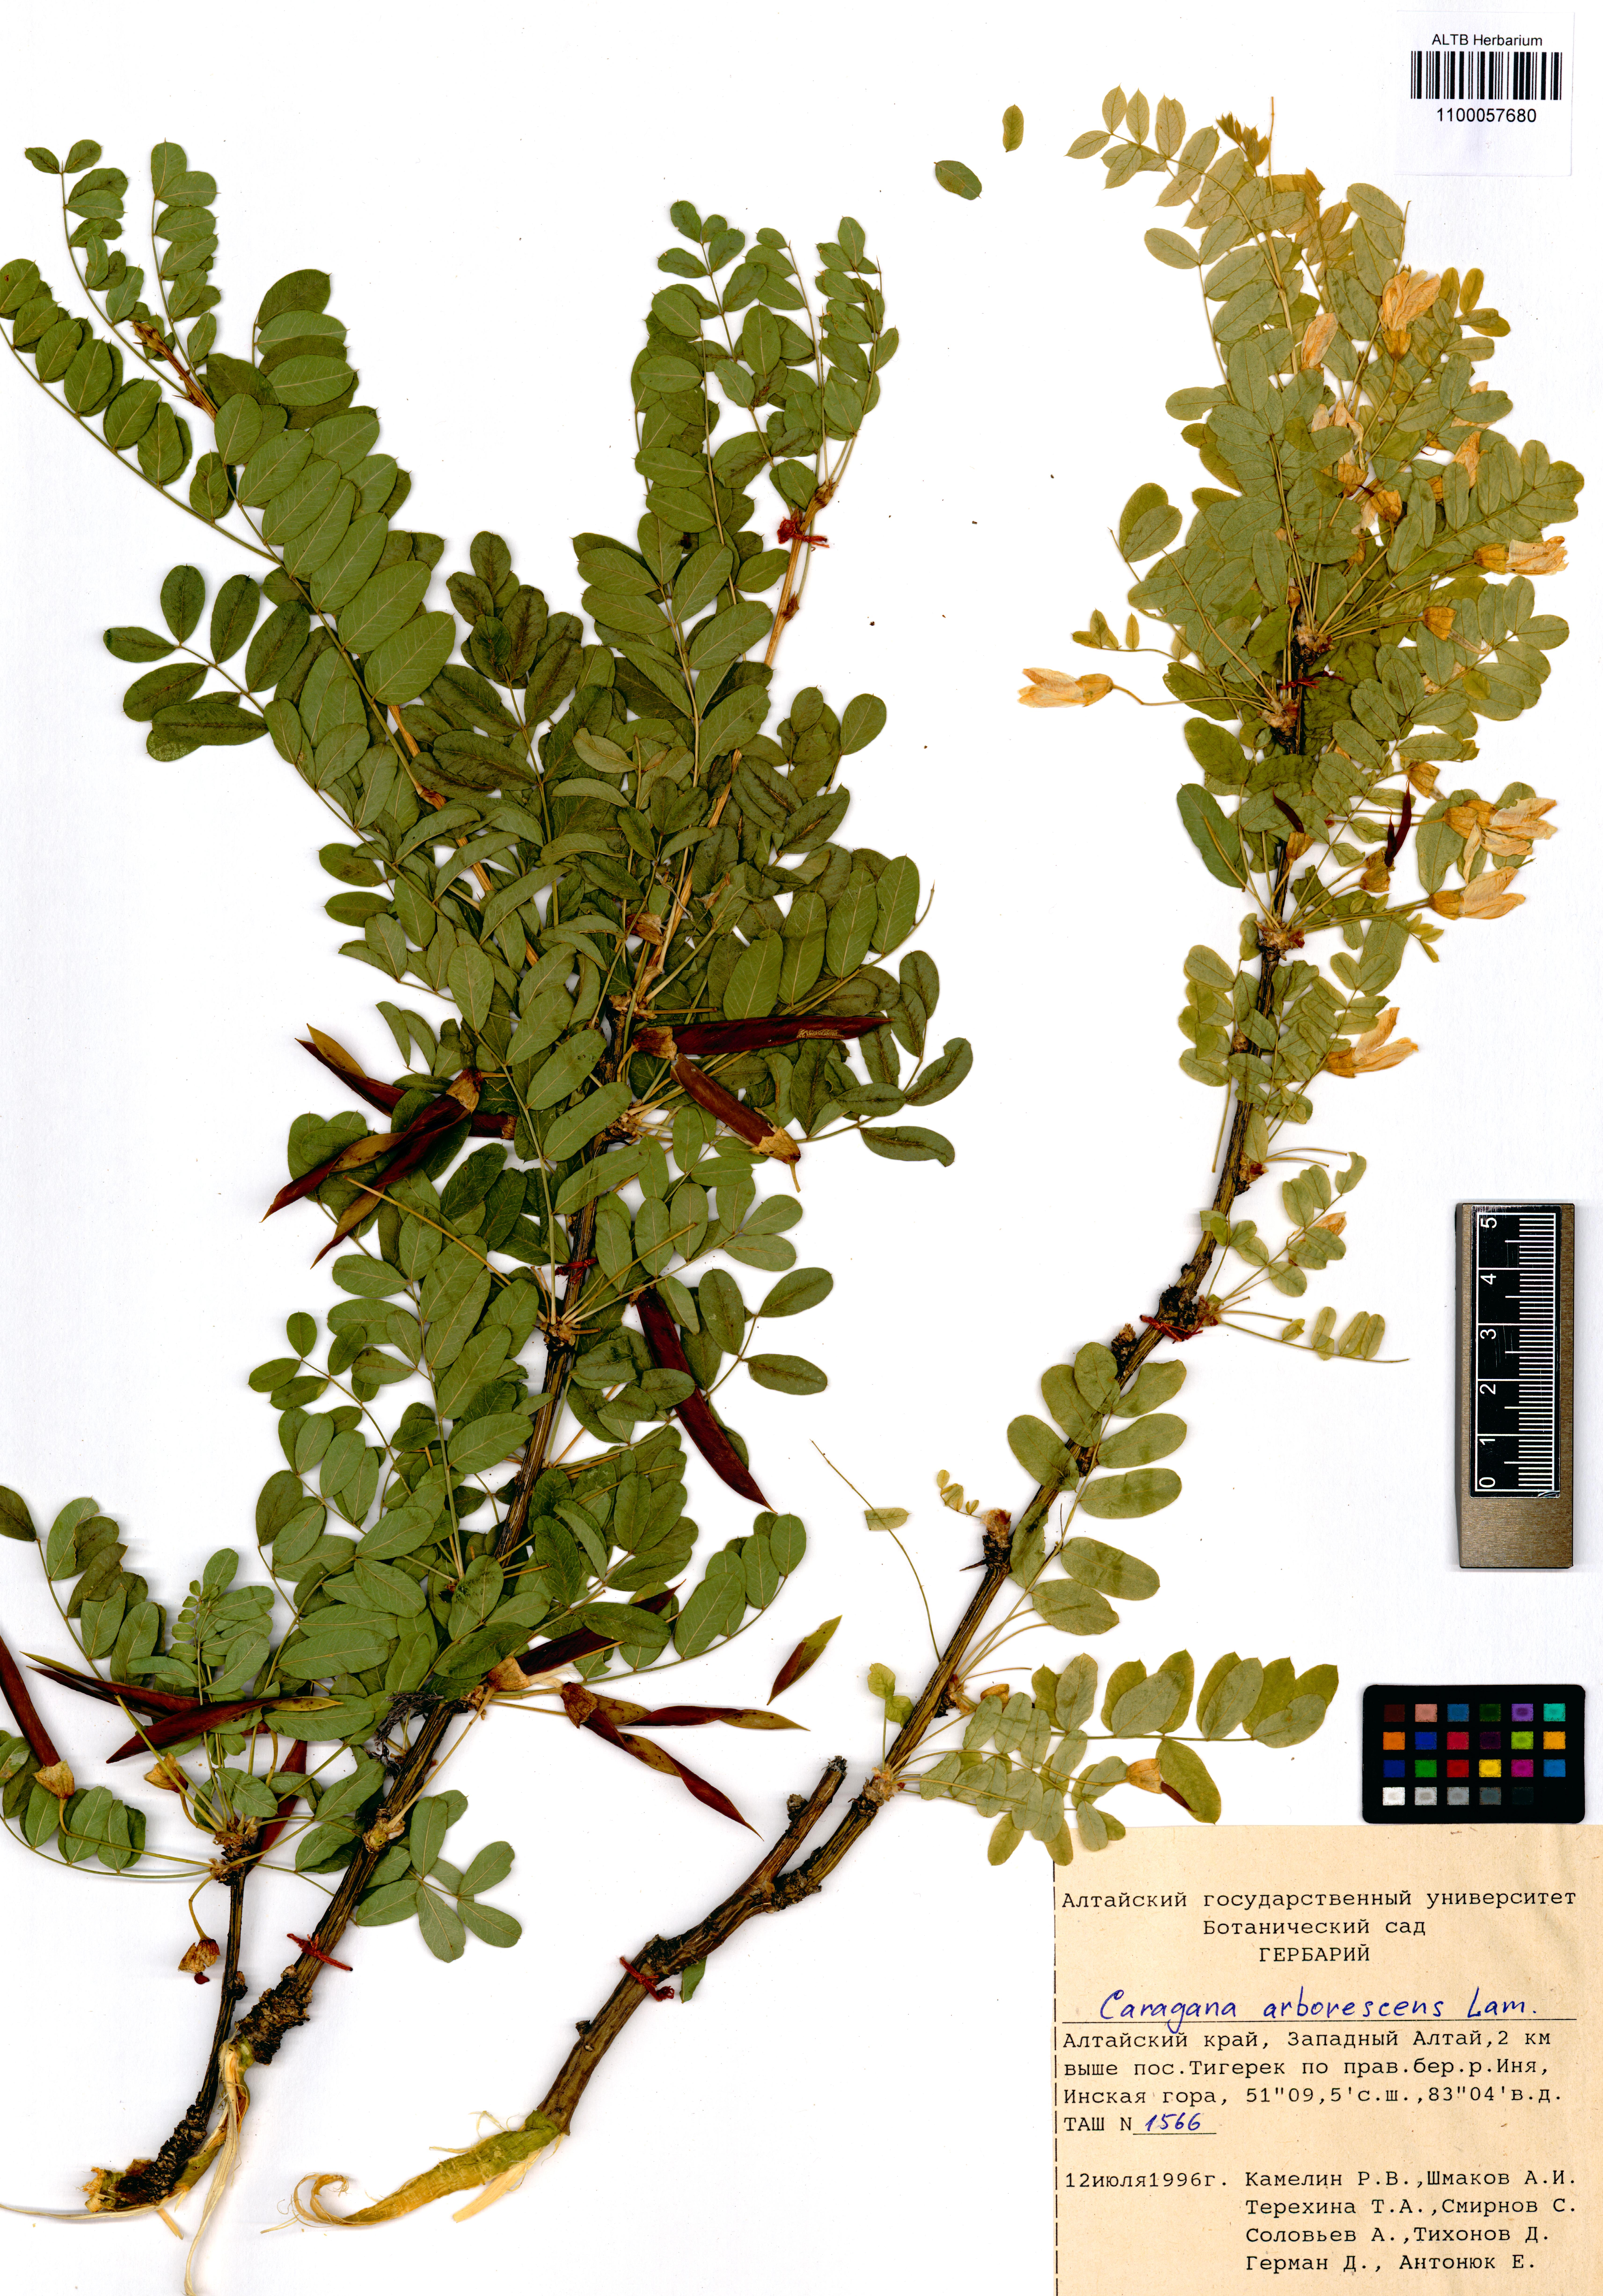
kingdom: Plantae
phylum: Tracheophyta
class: Magnoliopsida
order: Fabales
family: Fabaceae
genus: Caragana
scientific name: Caragana arborescens
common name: Siberian peashrub
